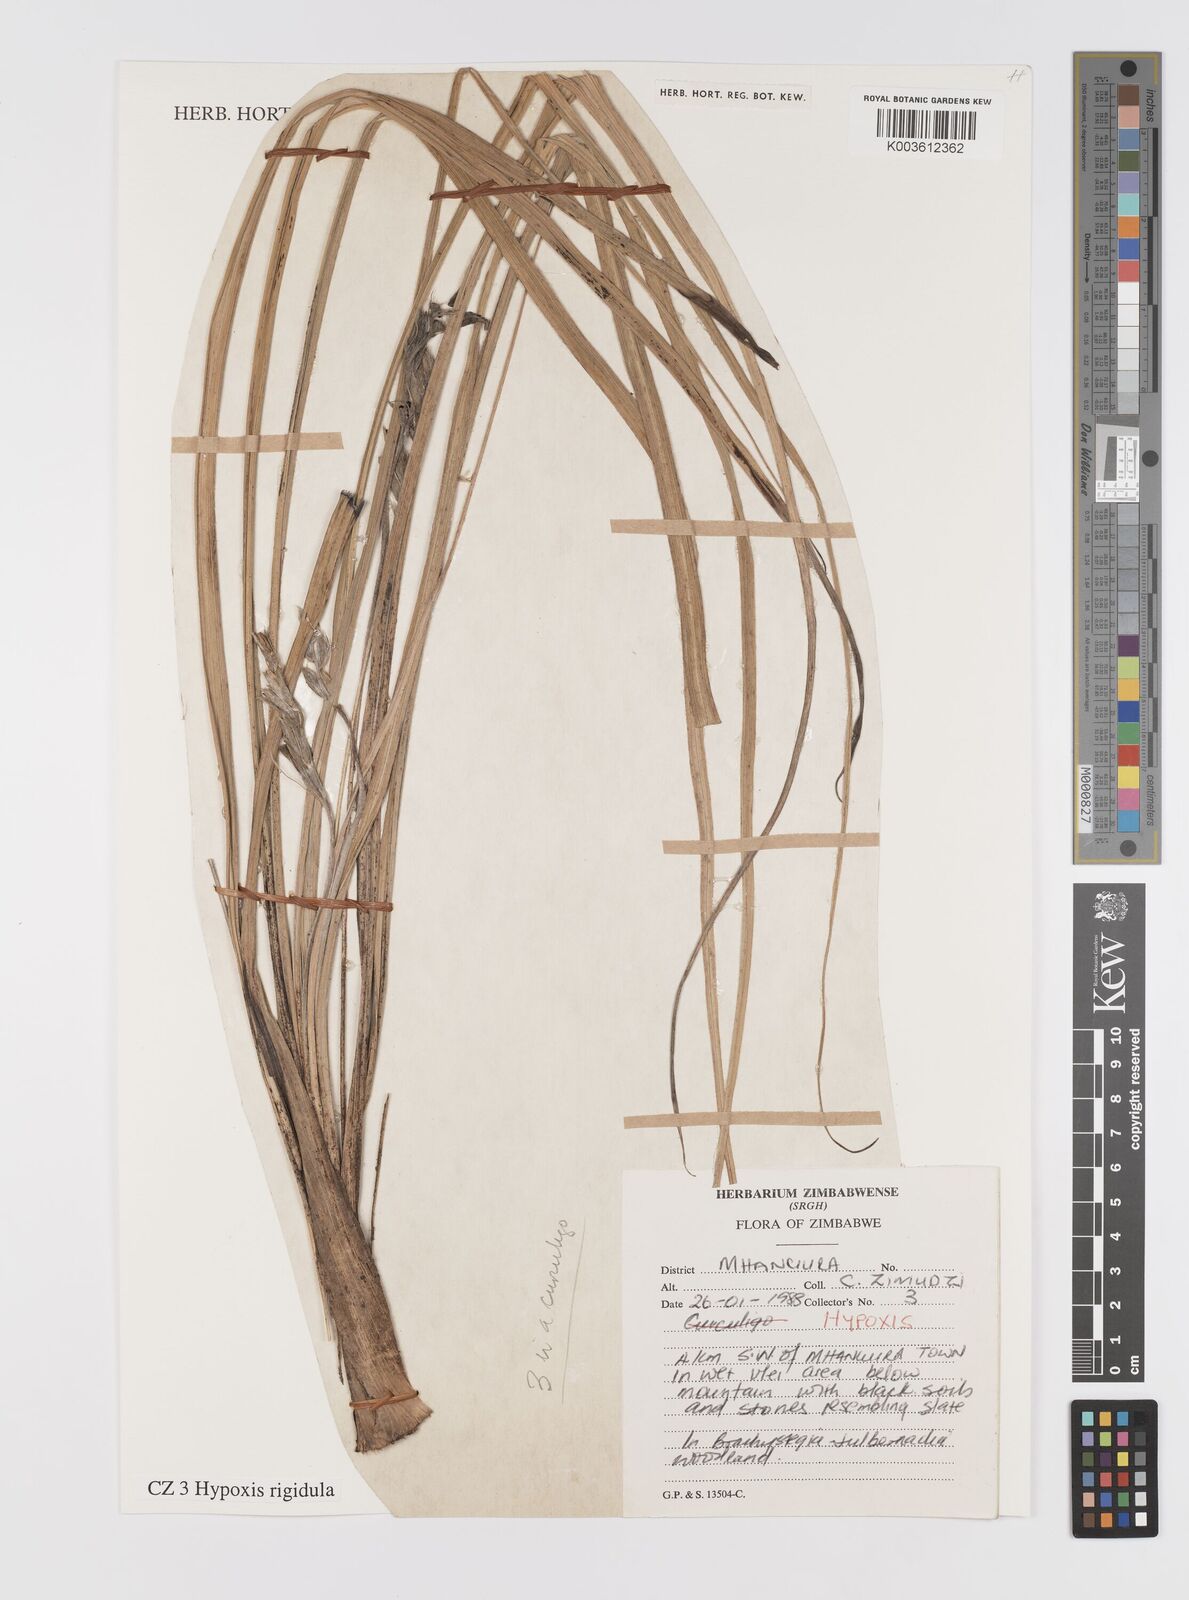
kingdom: Plantae
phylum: Tracheophyta
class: Liliopsida
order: Asparagales
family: Hypoxidaceae
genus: Hypoxis
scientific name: Hypoxis rigidula
